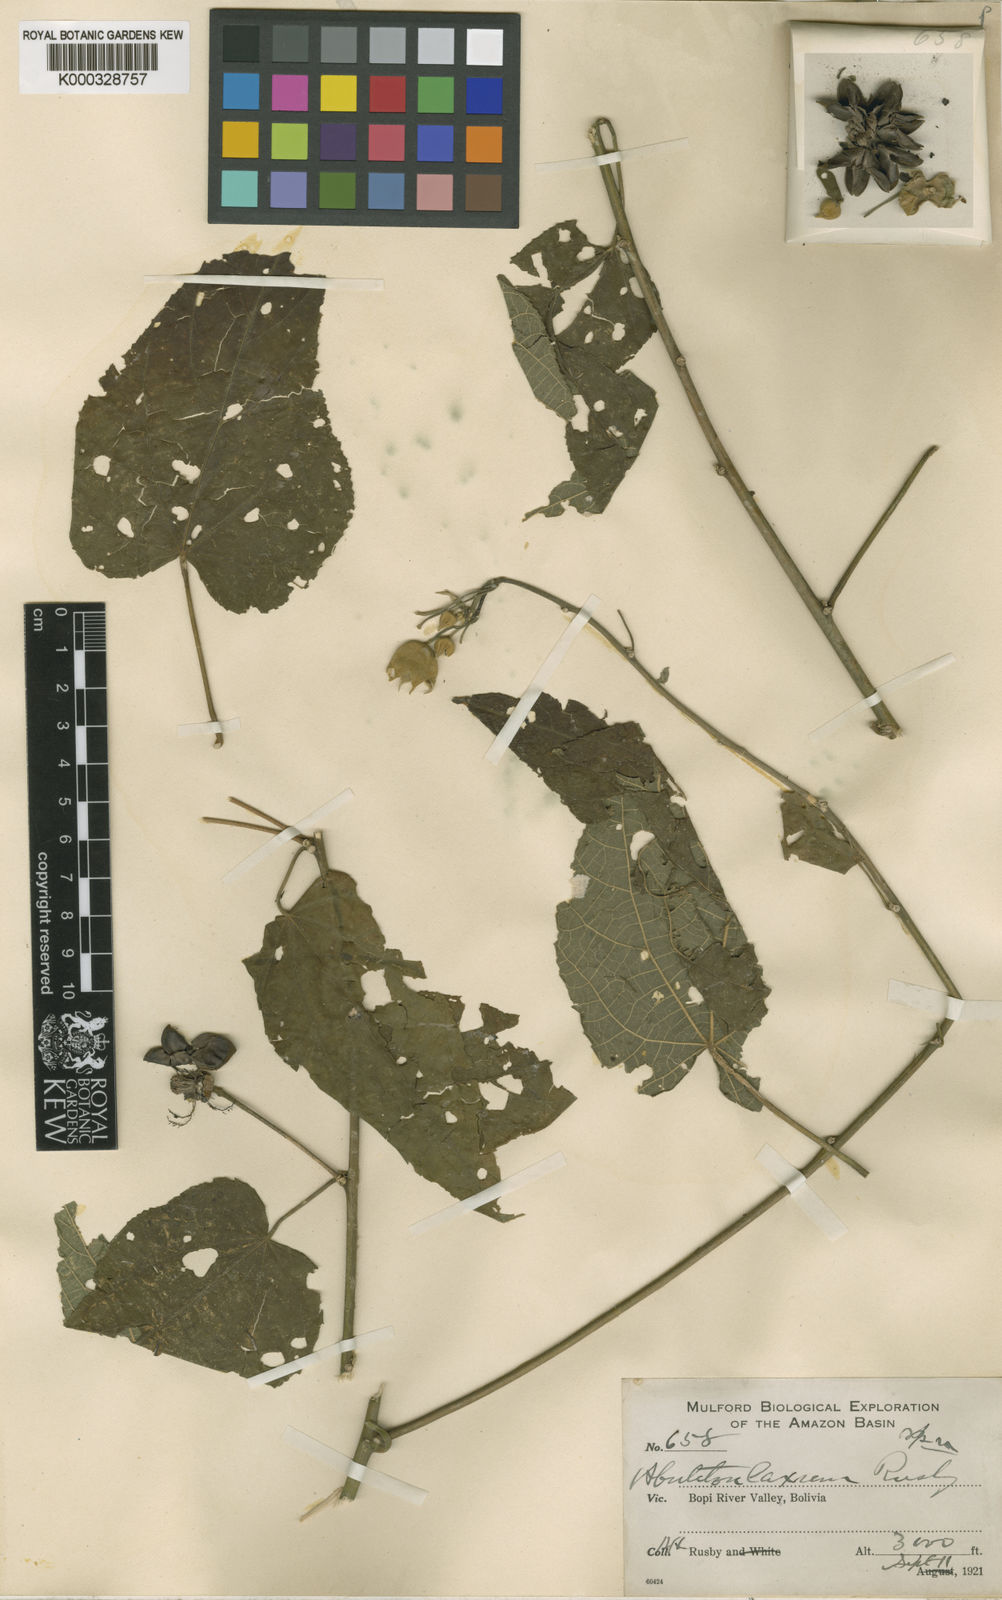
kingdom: Plantae
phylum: Tracheophyta
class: Magnoliopsida
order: Malvales
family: Malvaceae
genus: Callianthe
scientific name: Callianthe sylvatica
